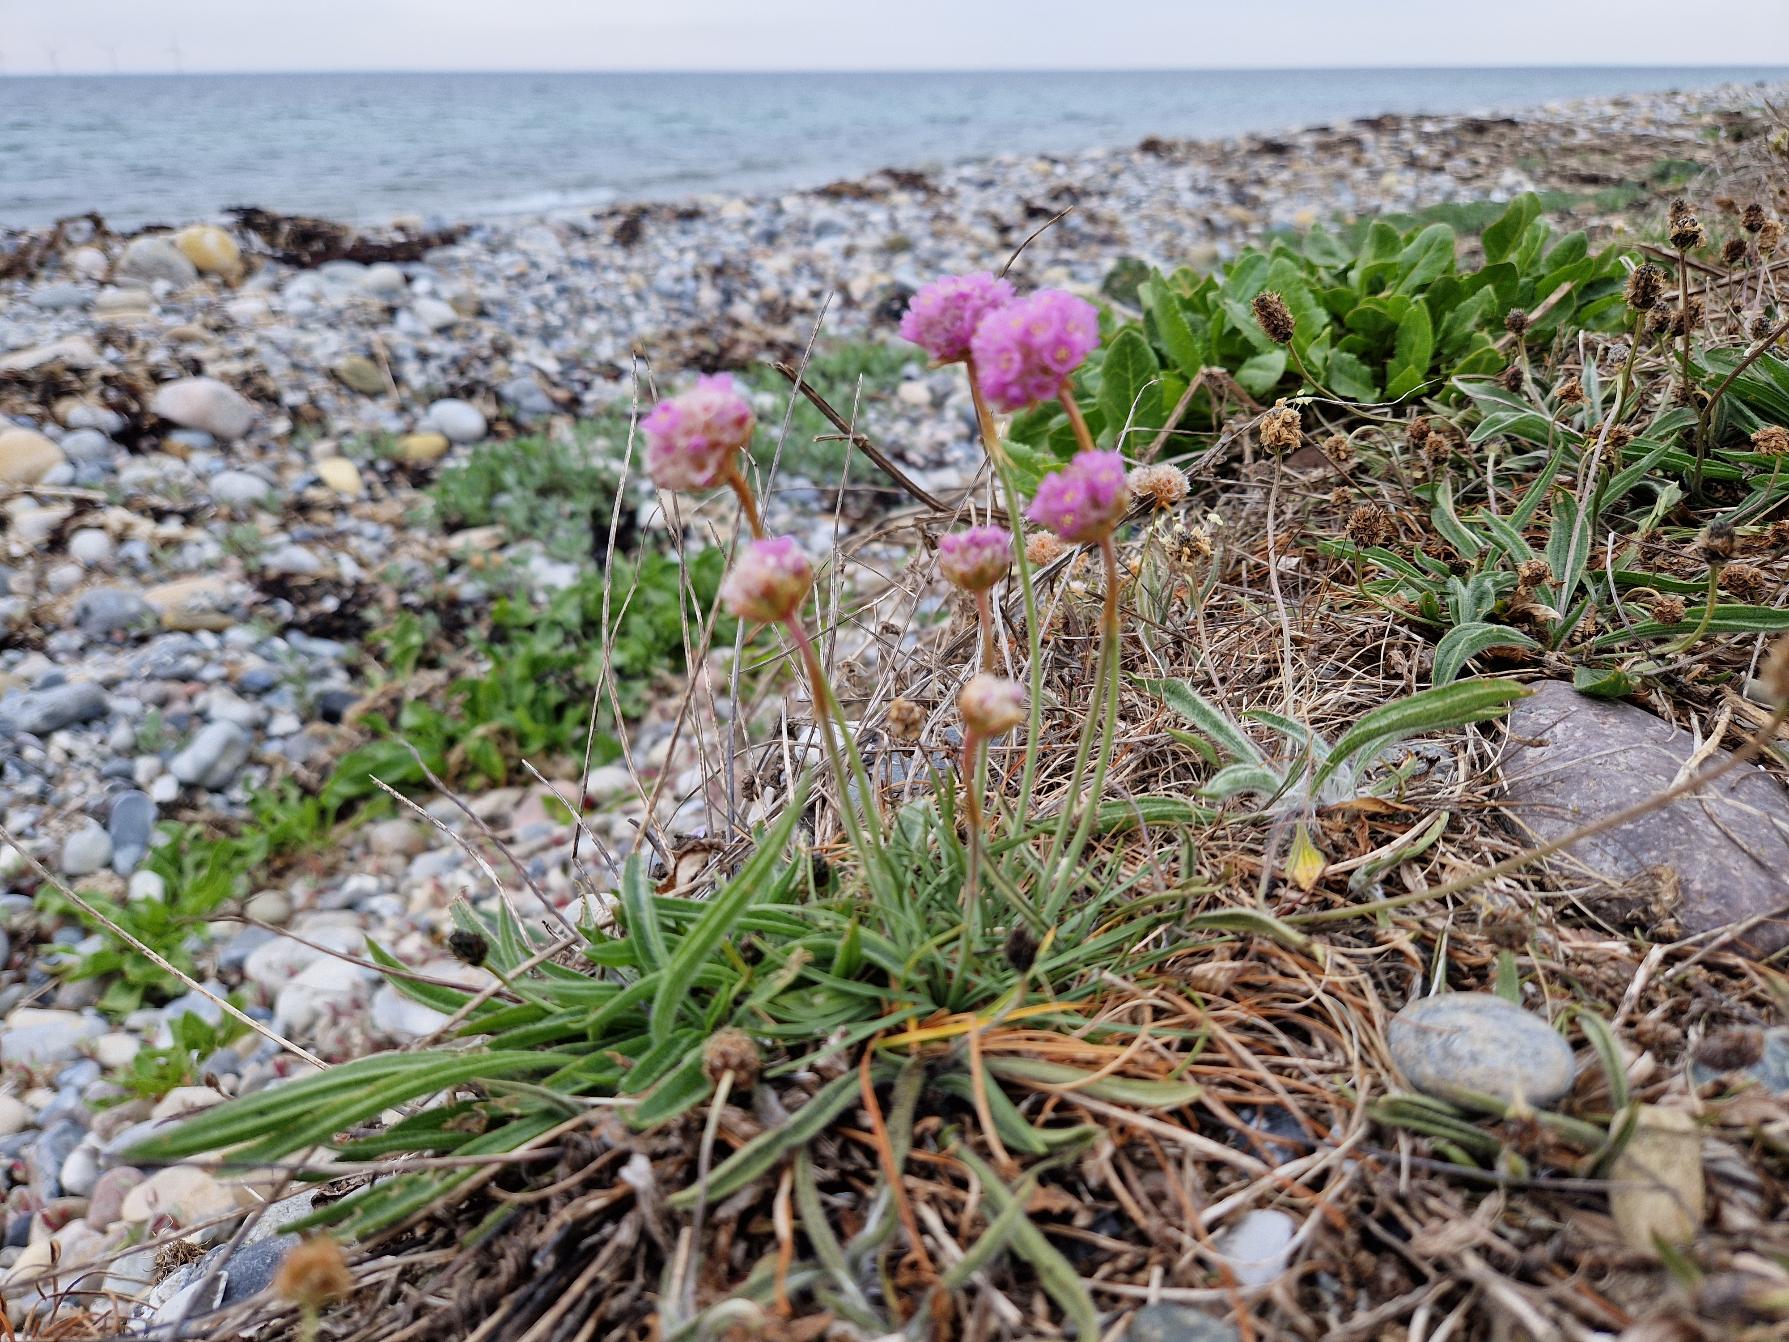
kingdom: Plantae
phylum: Tracheophyta
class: Magnoliopsida
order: Caryophyllales
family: Plumbaginaceae
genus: Armeria
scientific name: Armeria maritima
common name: Engelskgræs
